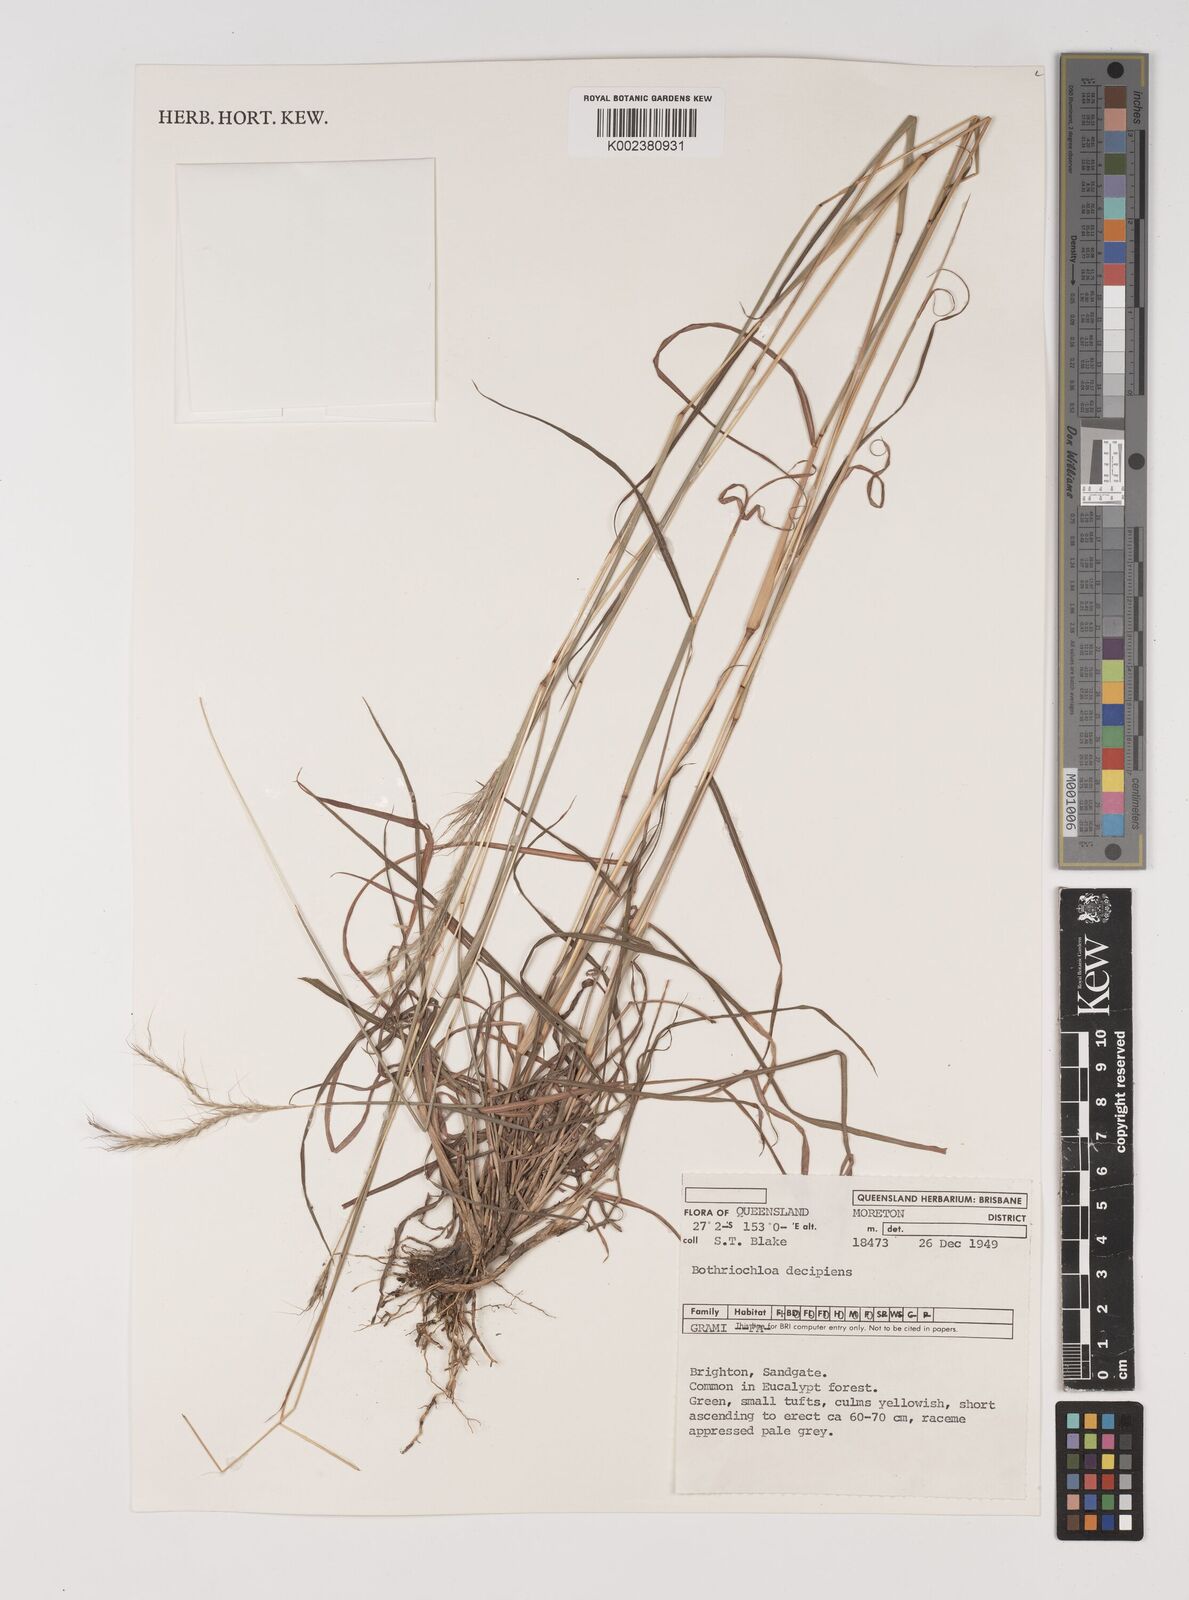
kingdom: Plantae
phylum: Tracheophyta
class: Liliopsida
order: Poales
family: Poaceae
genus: Bothriochloa
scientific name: Bothriochloa decipiens
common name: Pitted-bluegrass
